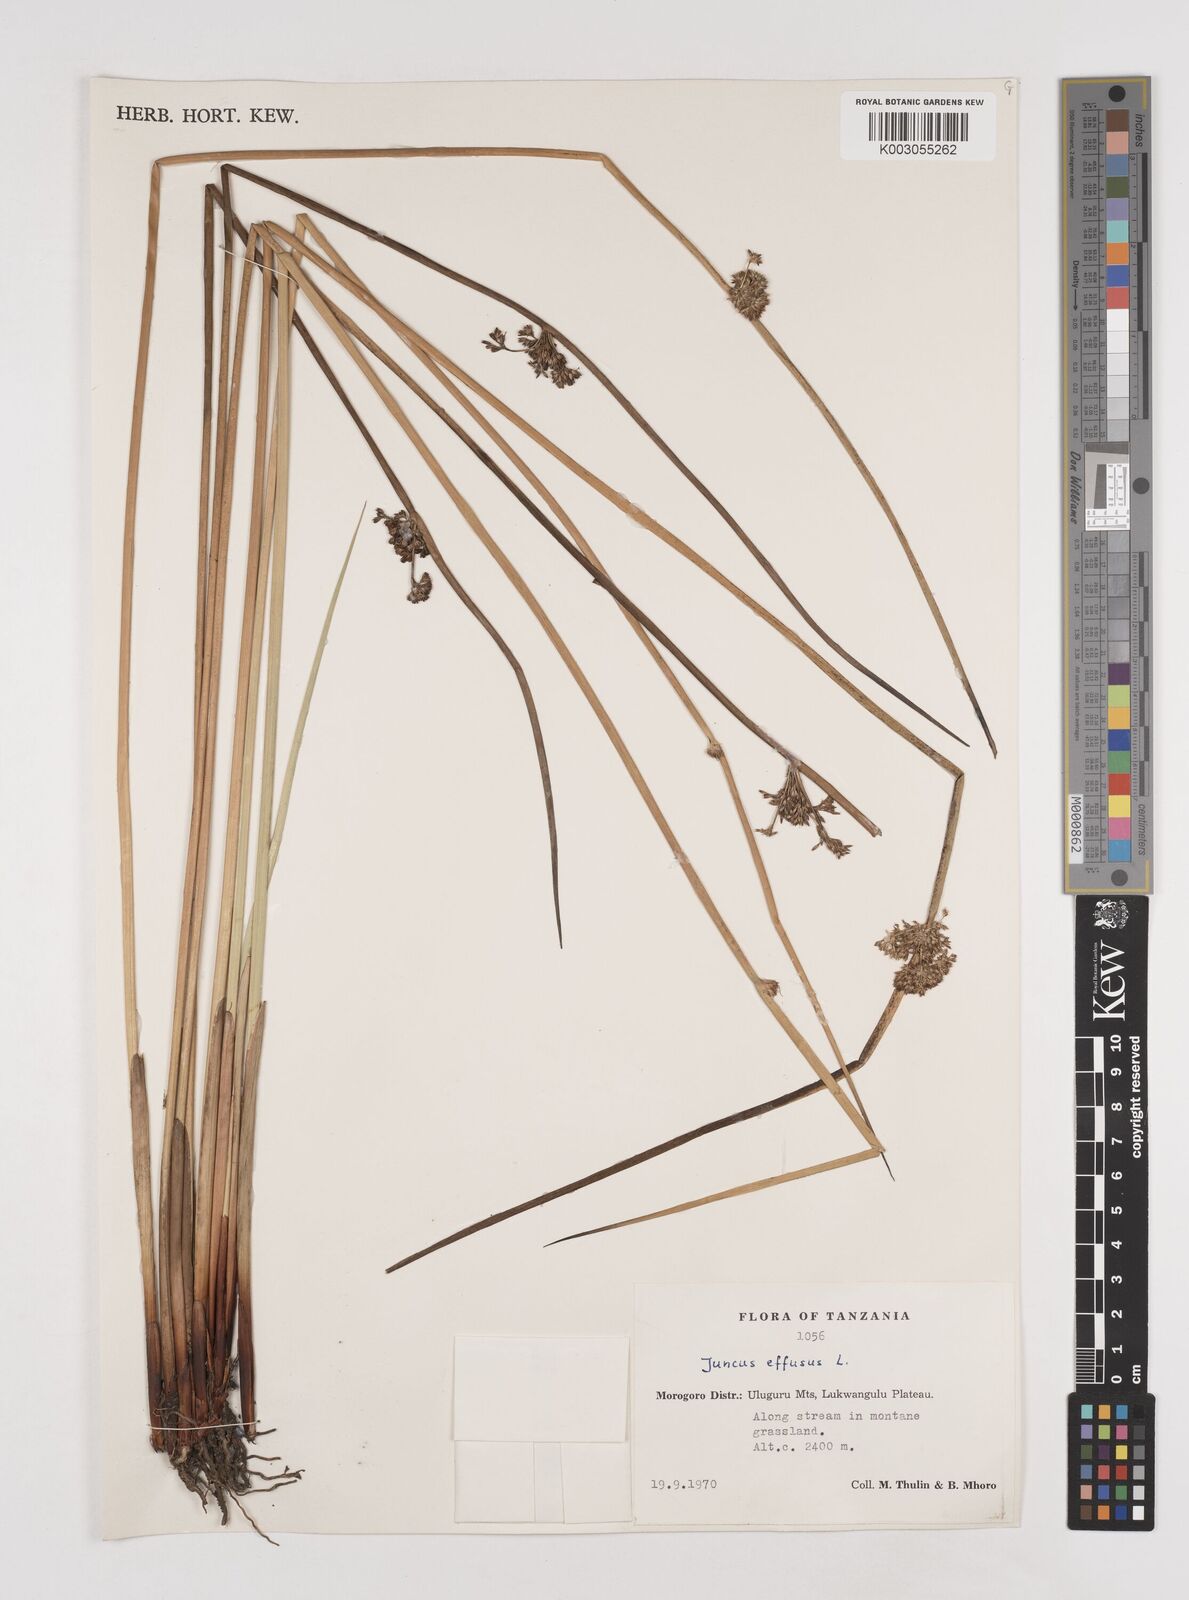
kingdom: Plantae
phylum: Tracheophyta
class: Liliopsida
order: Poales
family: Juncaceae
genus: Juncus
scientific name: Juncus effusus
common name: Soft rush
